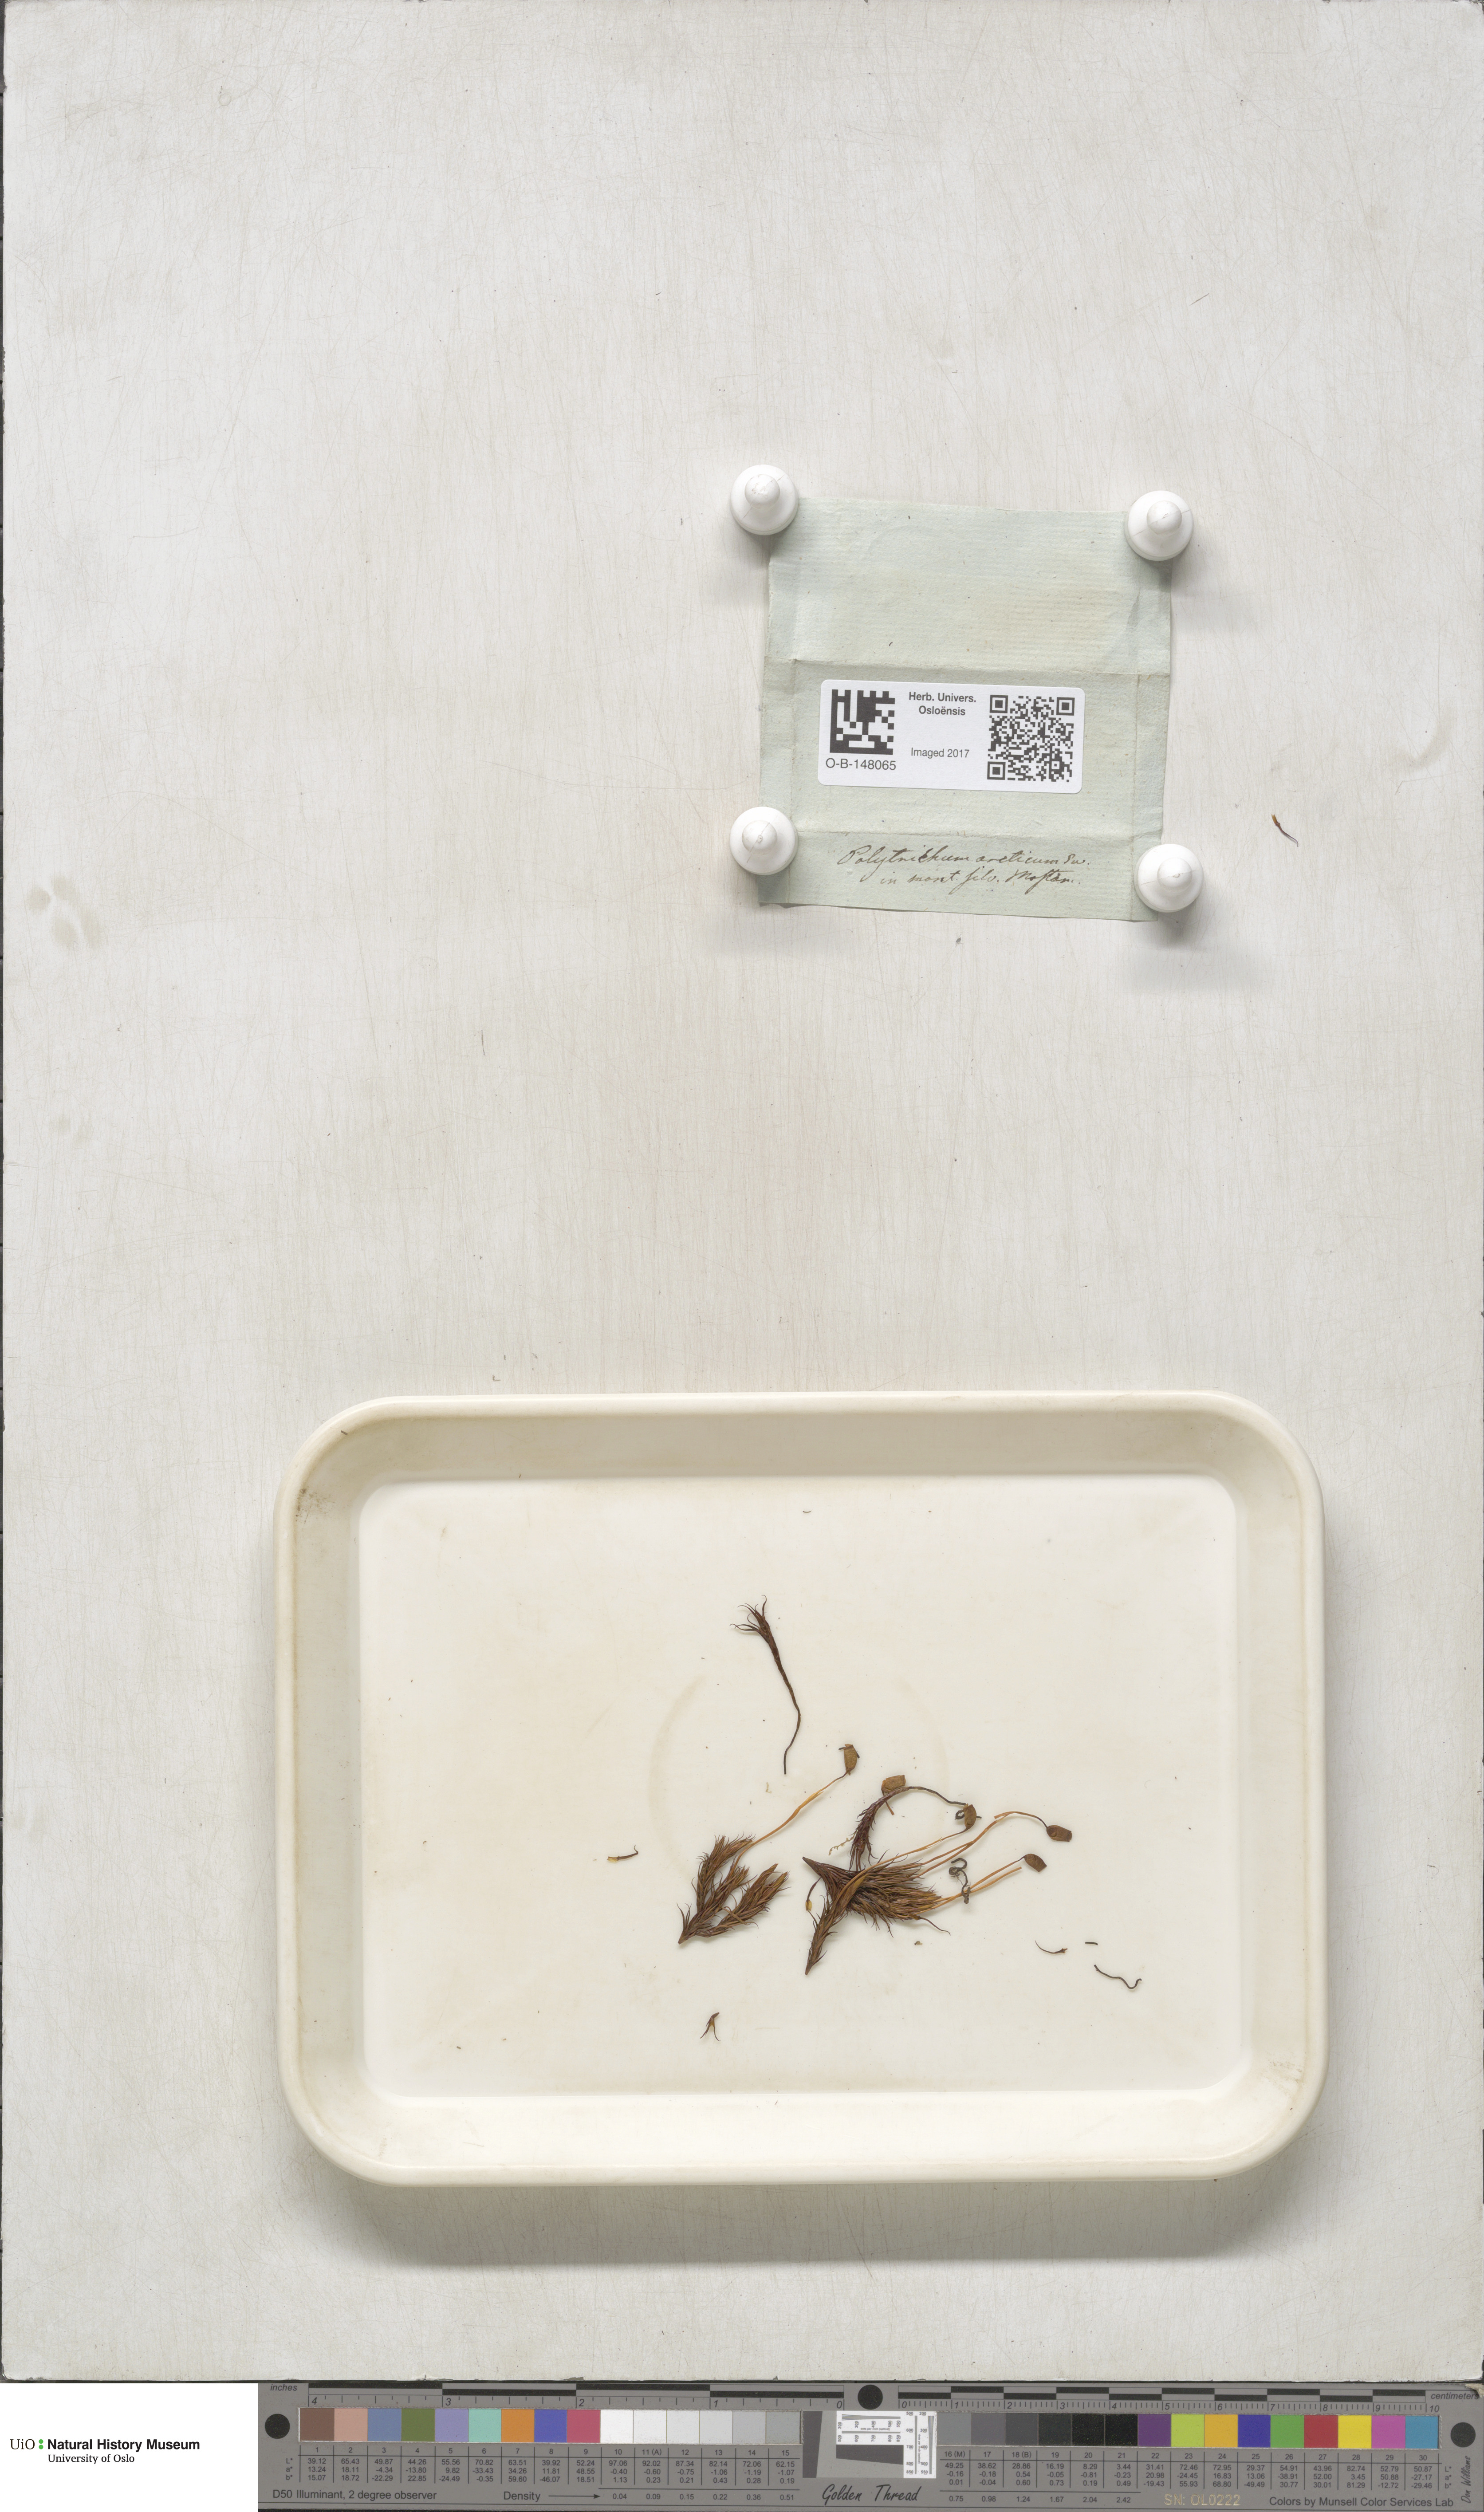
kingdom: Plantae
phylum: Bryophyta
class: Polytrichopsida
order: Polytrichales
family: Polytrichaceae
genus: Polytrichastrum
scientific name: Polytrichastrum alpinum
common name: Alpine haircap
